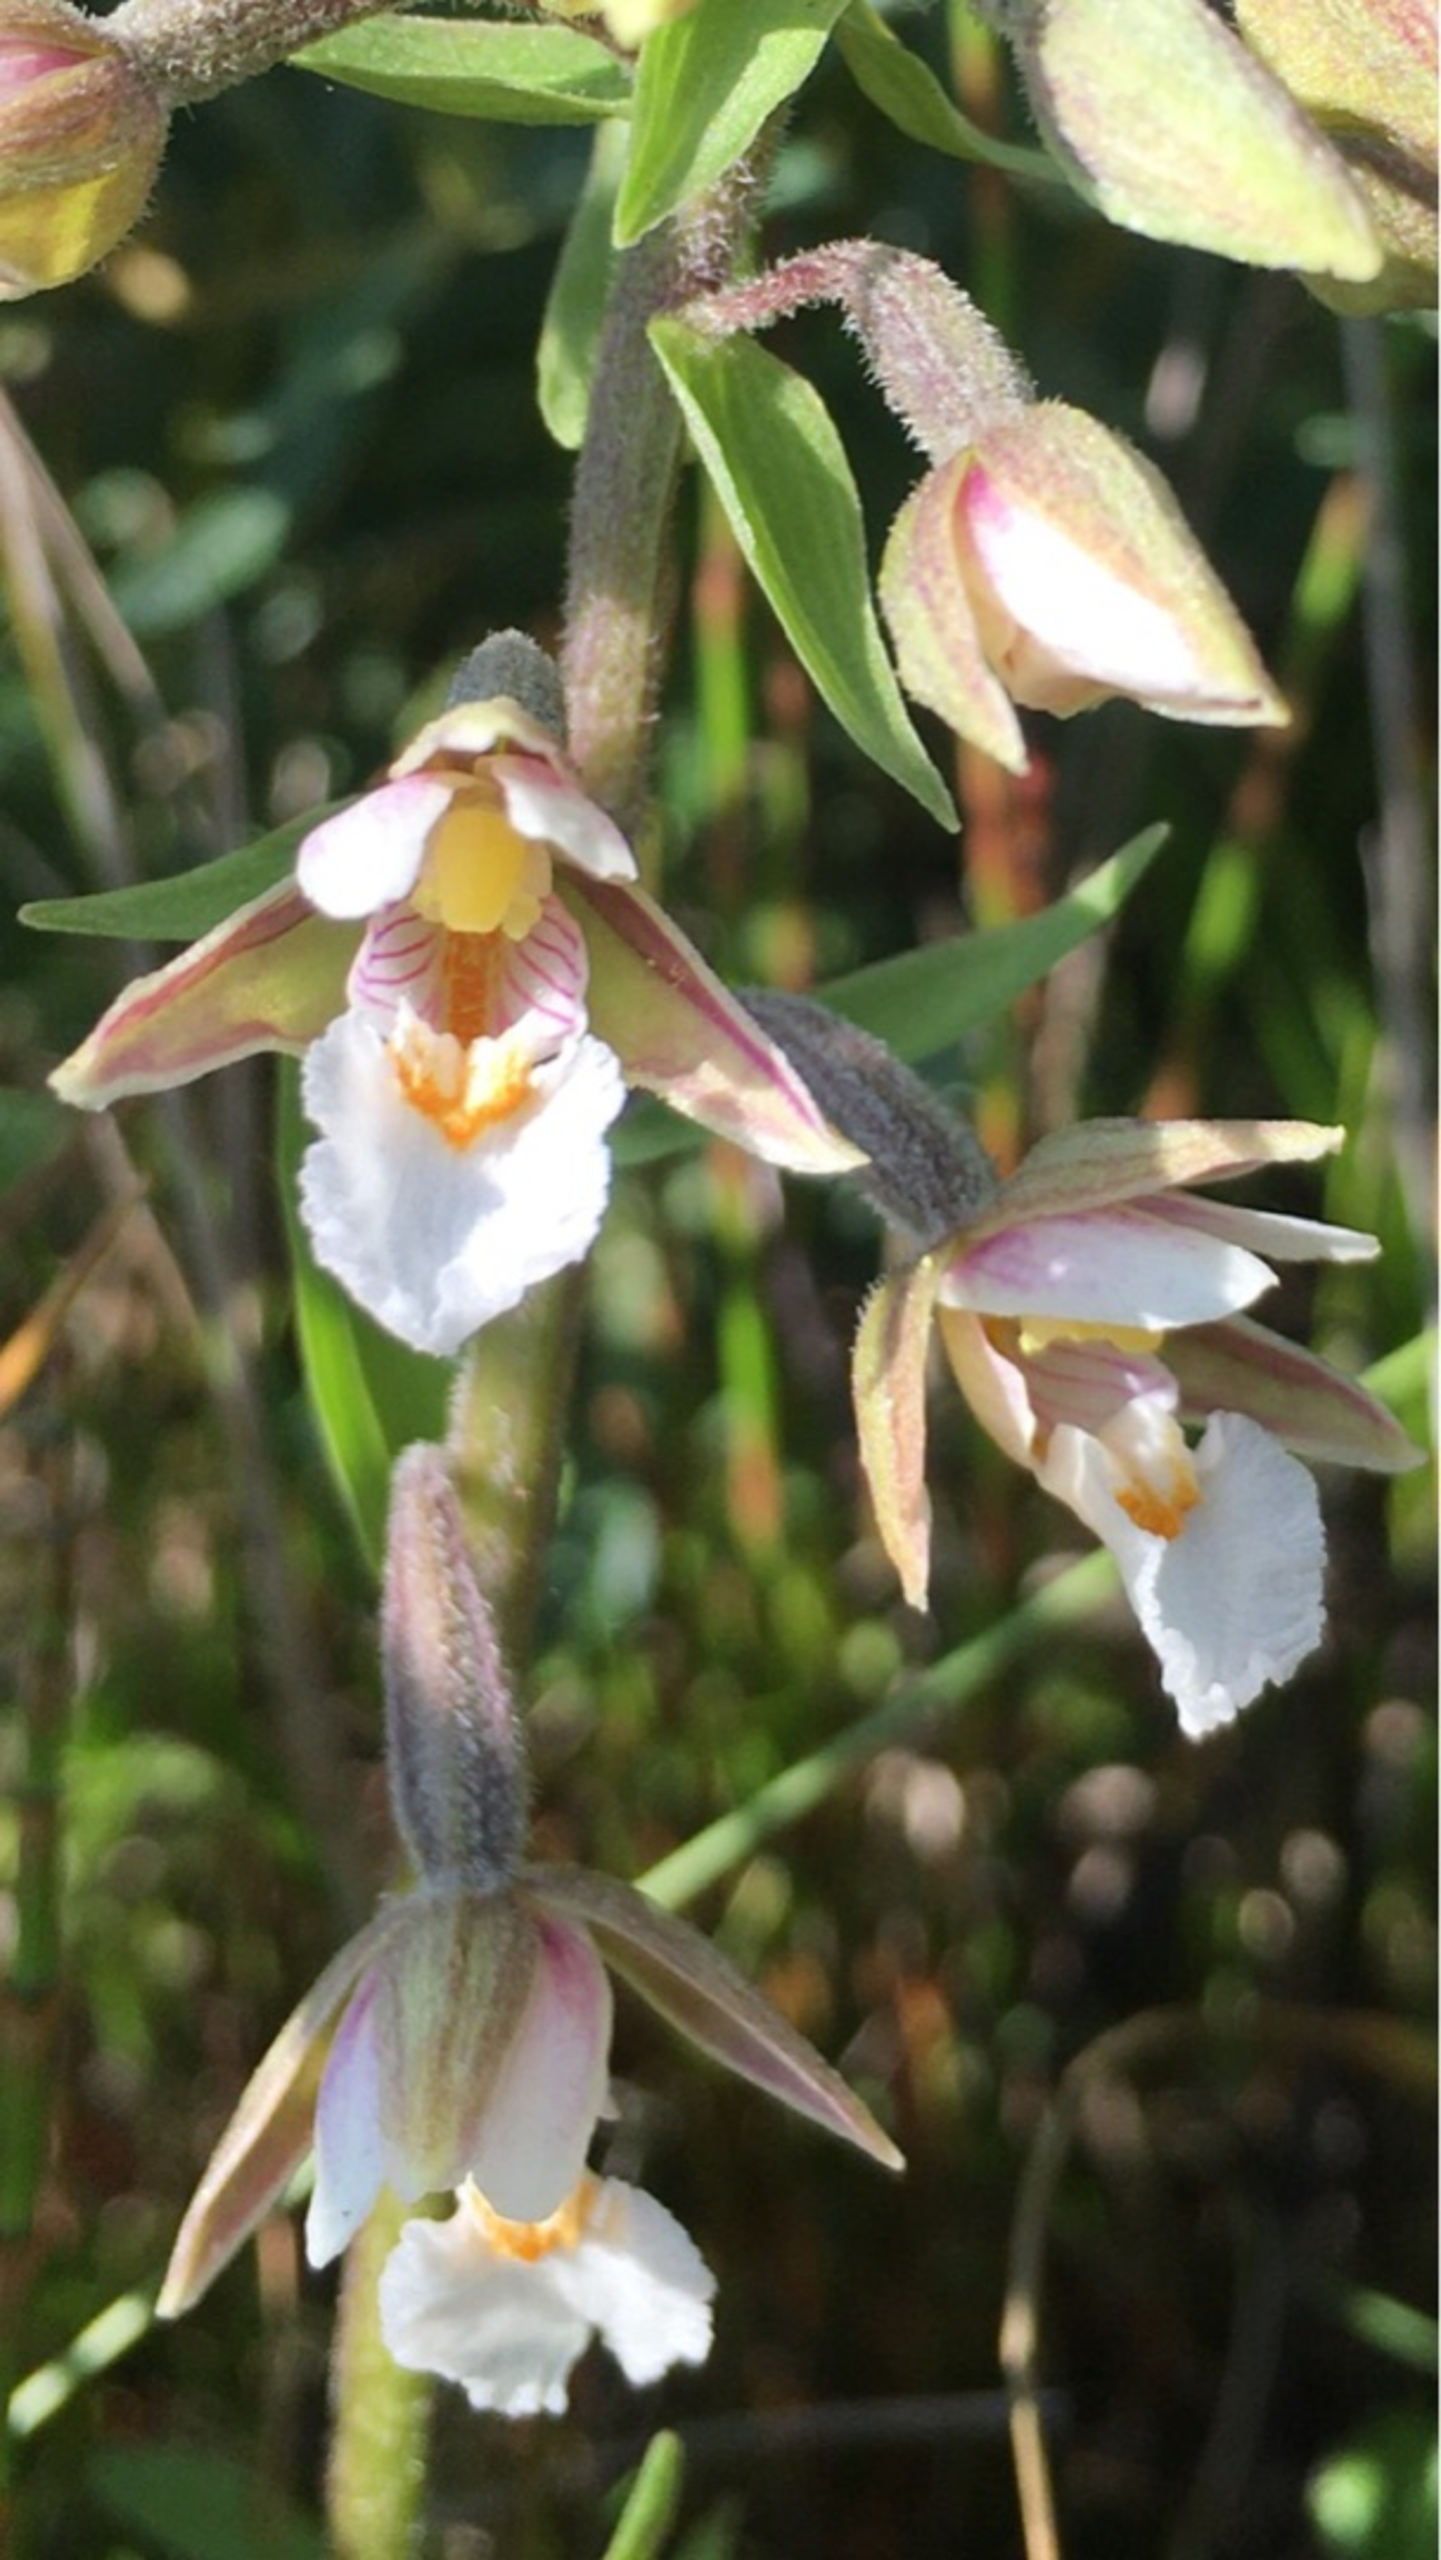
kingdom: Plantae
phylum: Tracheophyta
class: Liliopsida
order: Asparagales
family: Orchidaceae
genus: Epipactis
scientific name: Epipactis palustris
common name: Sump-hullæbe
